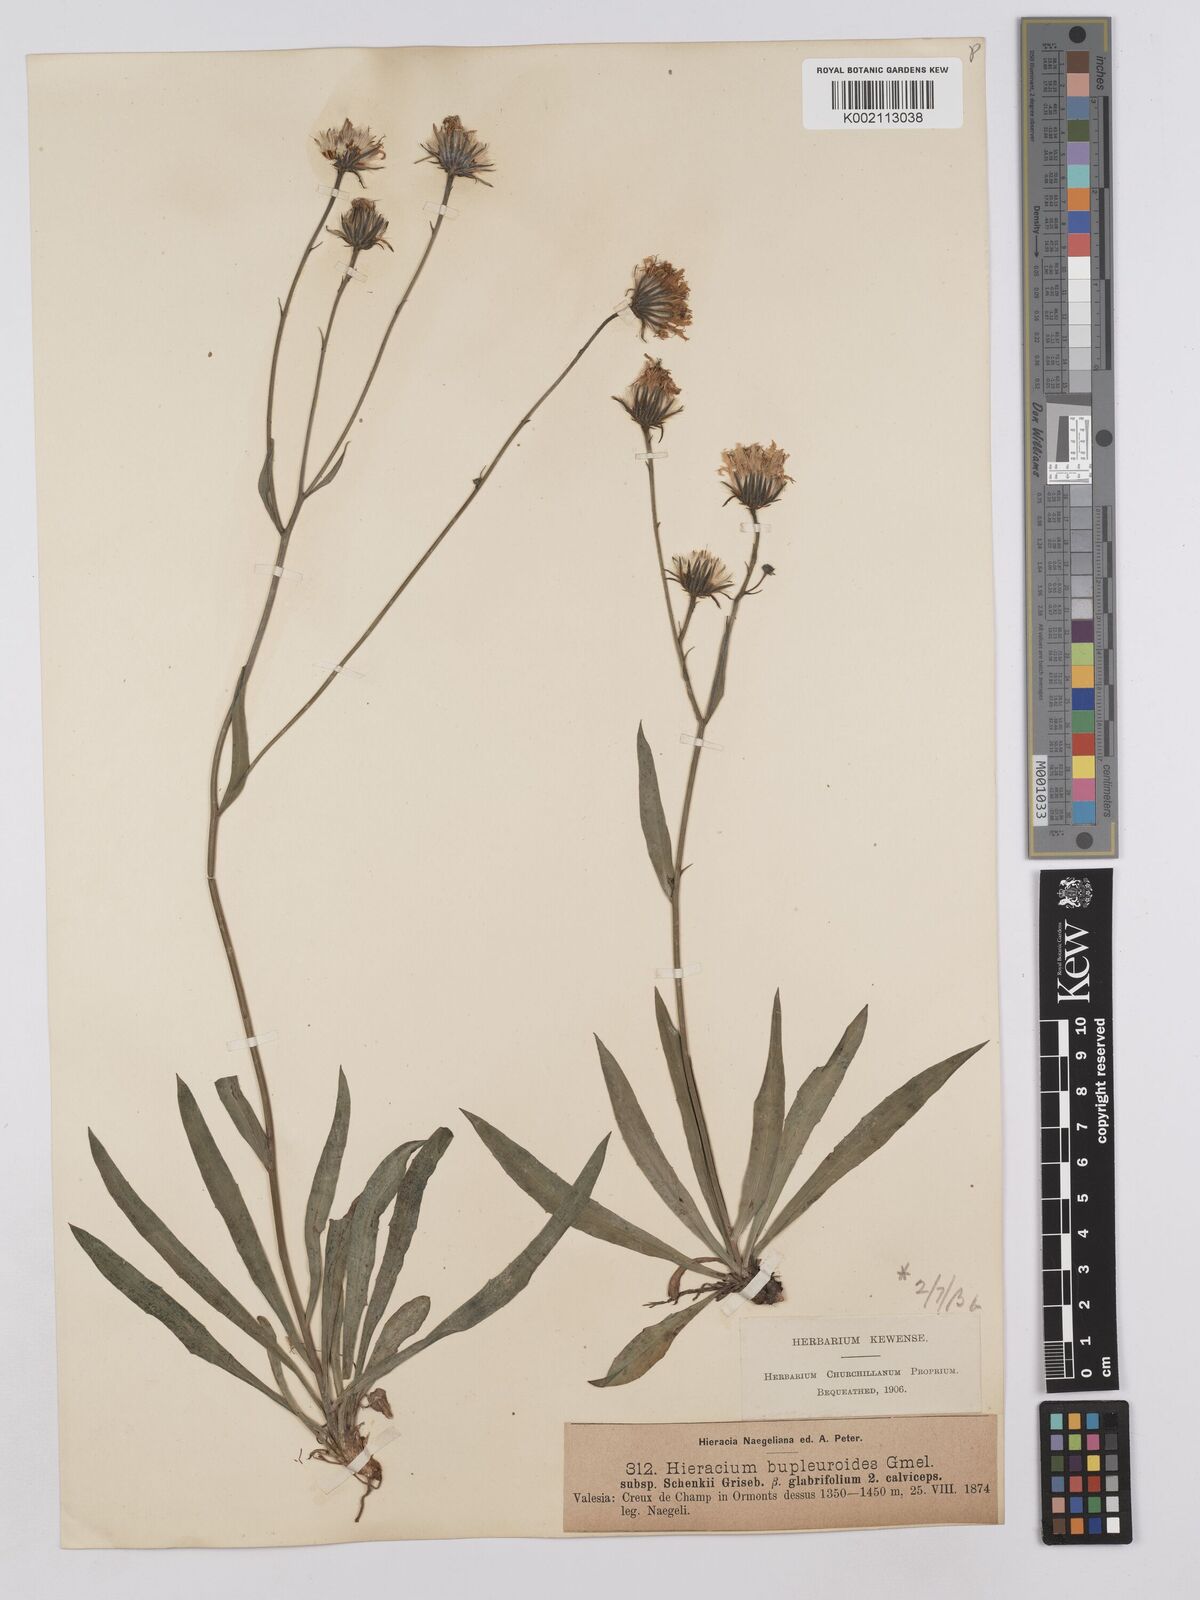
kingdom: Plantae
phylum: Tracheophyta
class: Magnoliopsida
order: Asterales
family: Asteraceae
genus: Hieracium
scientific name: Hieracium bupleuroides
